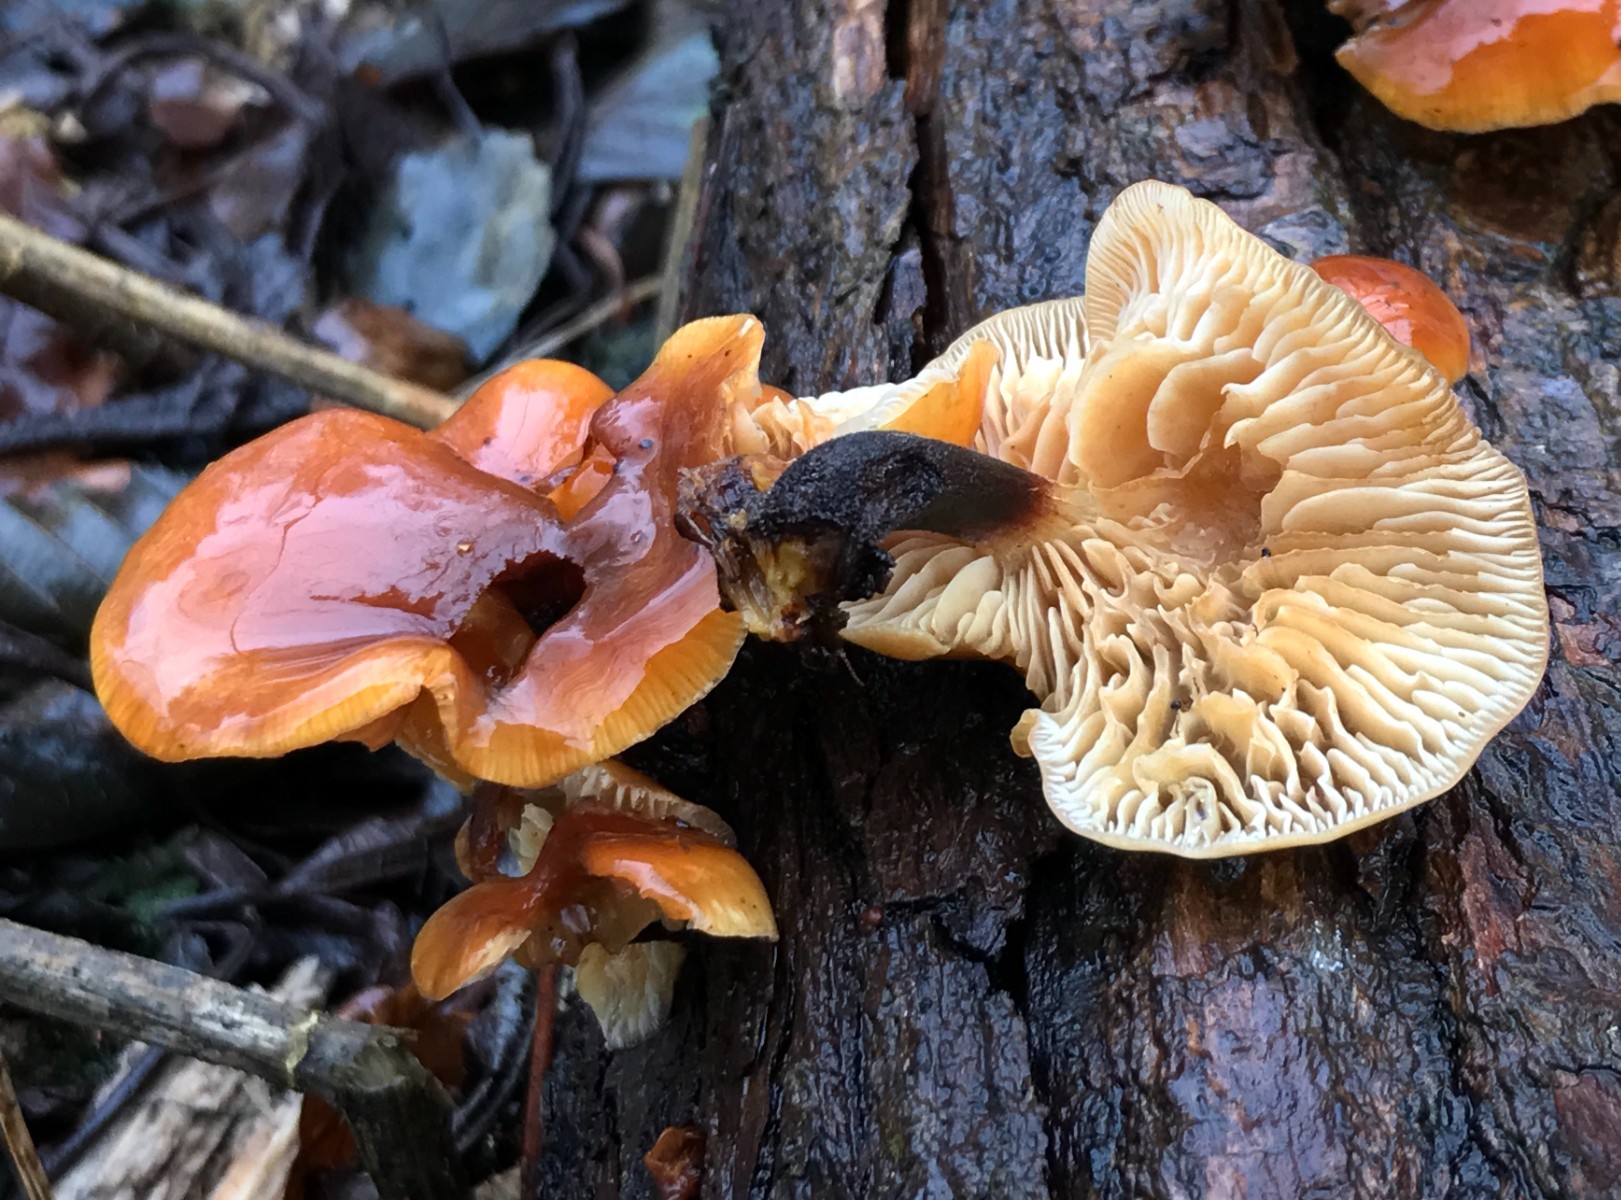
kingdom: Fungi
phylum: Basidiomycota
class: Agaricomycetes
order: Agaricales
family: Physalacriaceae
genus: Flammulina
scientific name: Flammulina velutipes
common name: gul fløjlsfod
